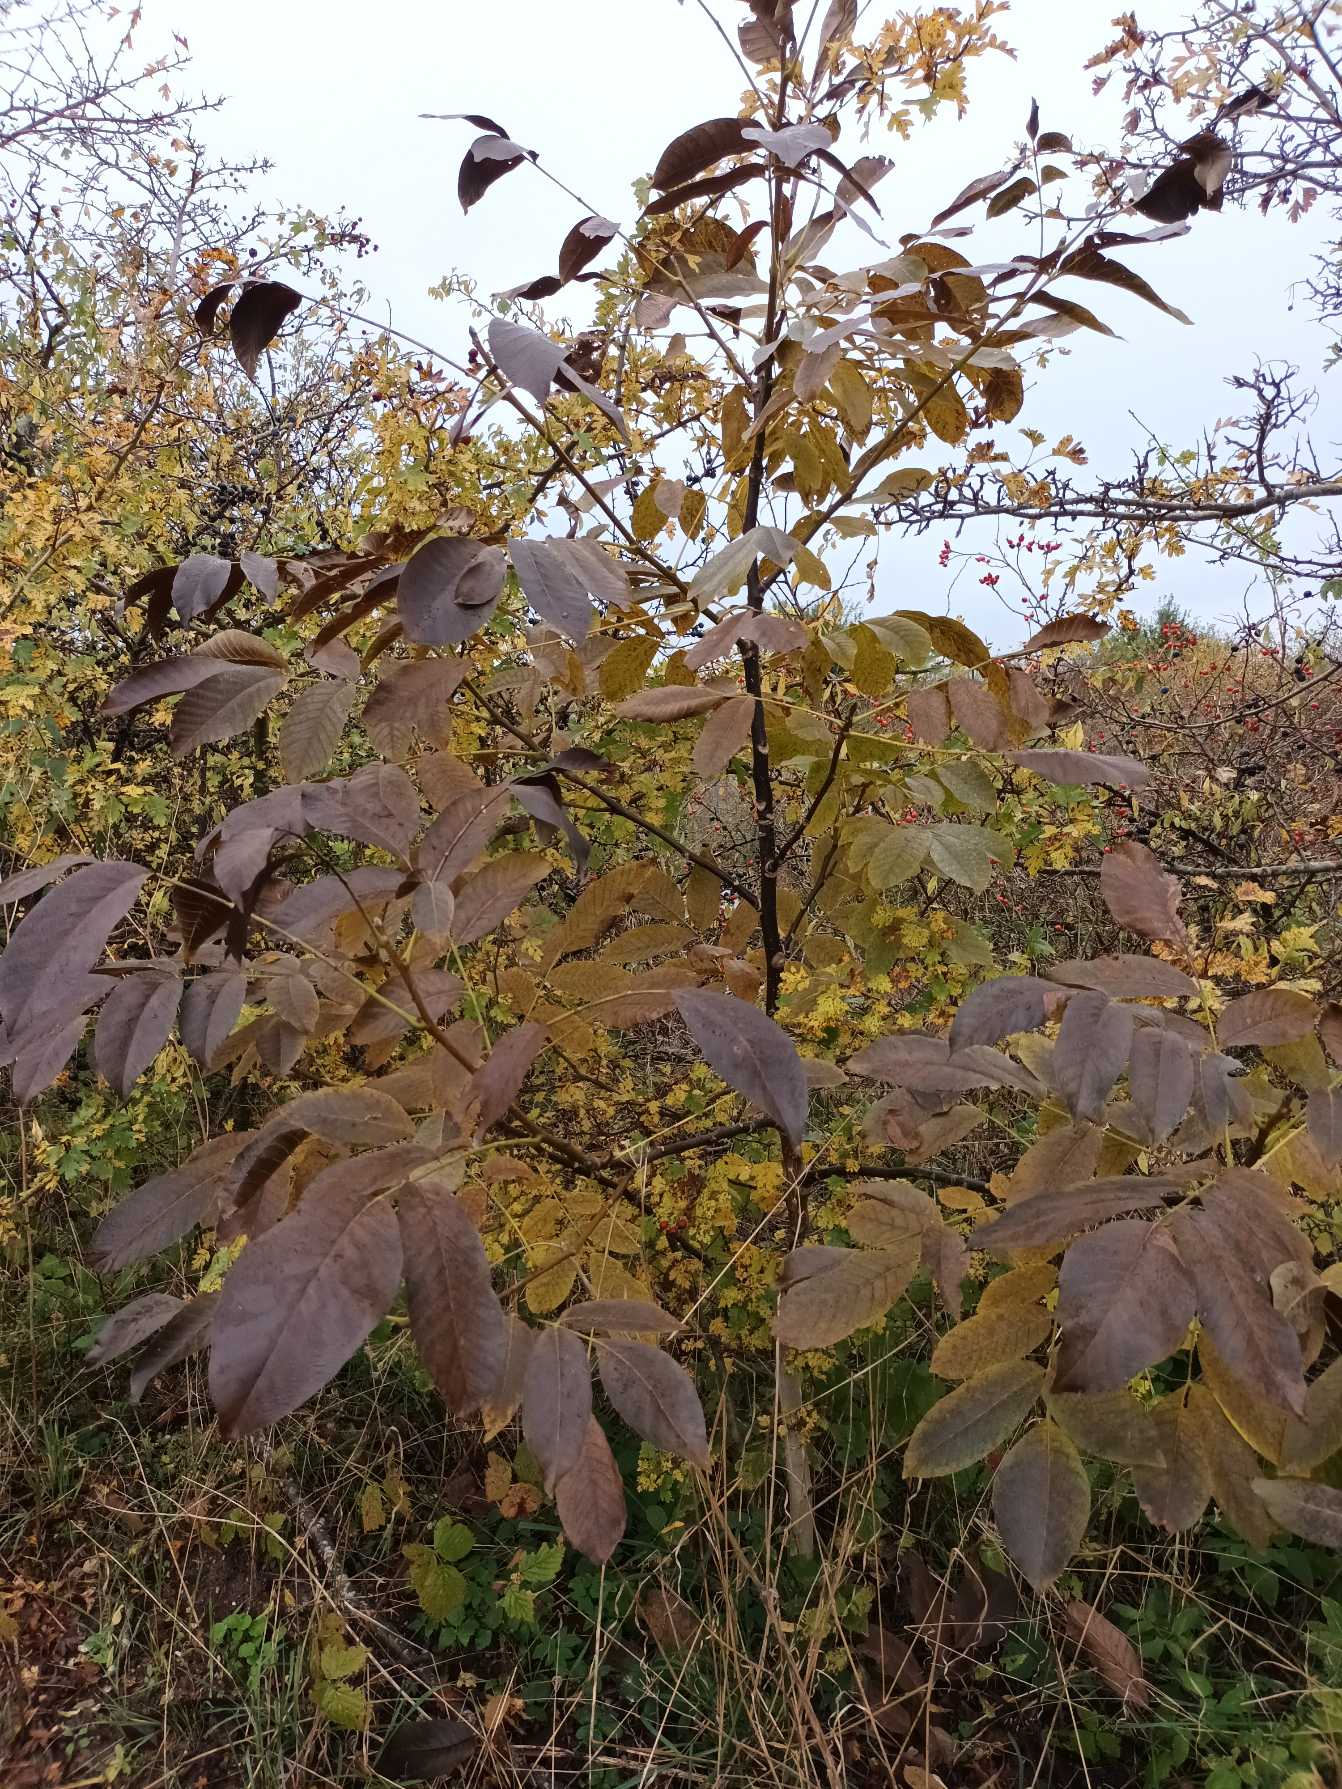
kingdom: Plantae
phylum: Tracheophyta
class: Magnoliopsida
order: Fagales
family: Juglandaceae
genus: Juglans
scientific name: Juglans regia
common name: Almindelig valnød
